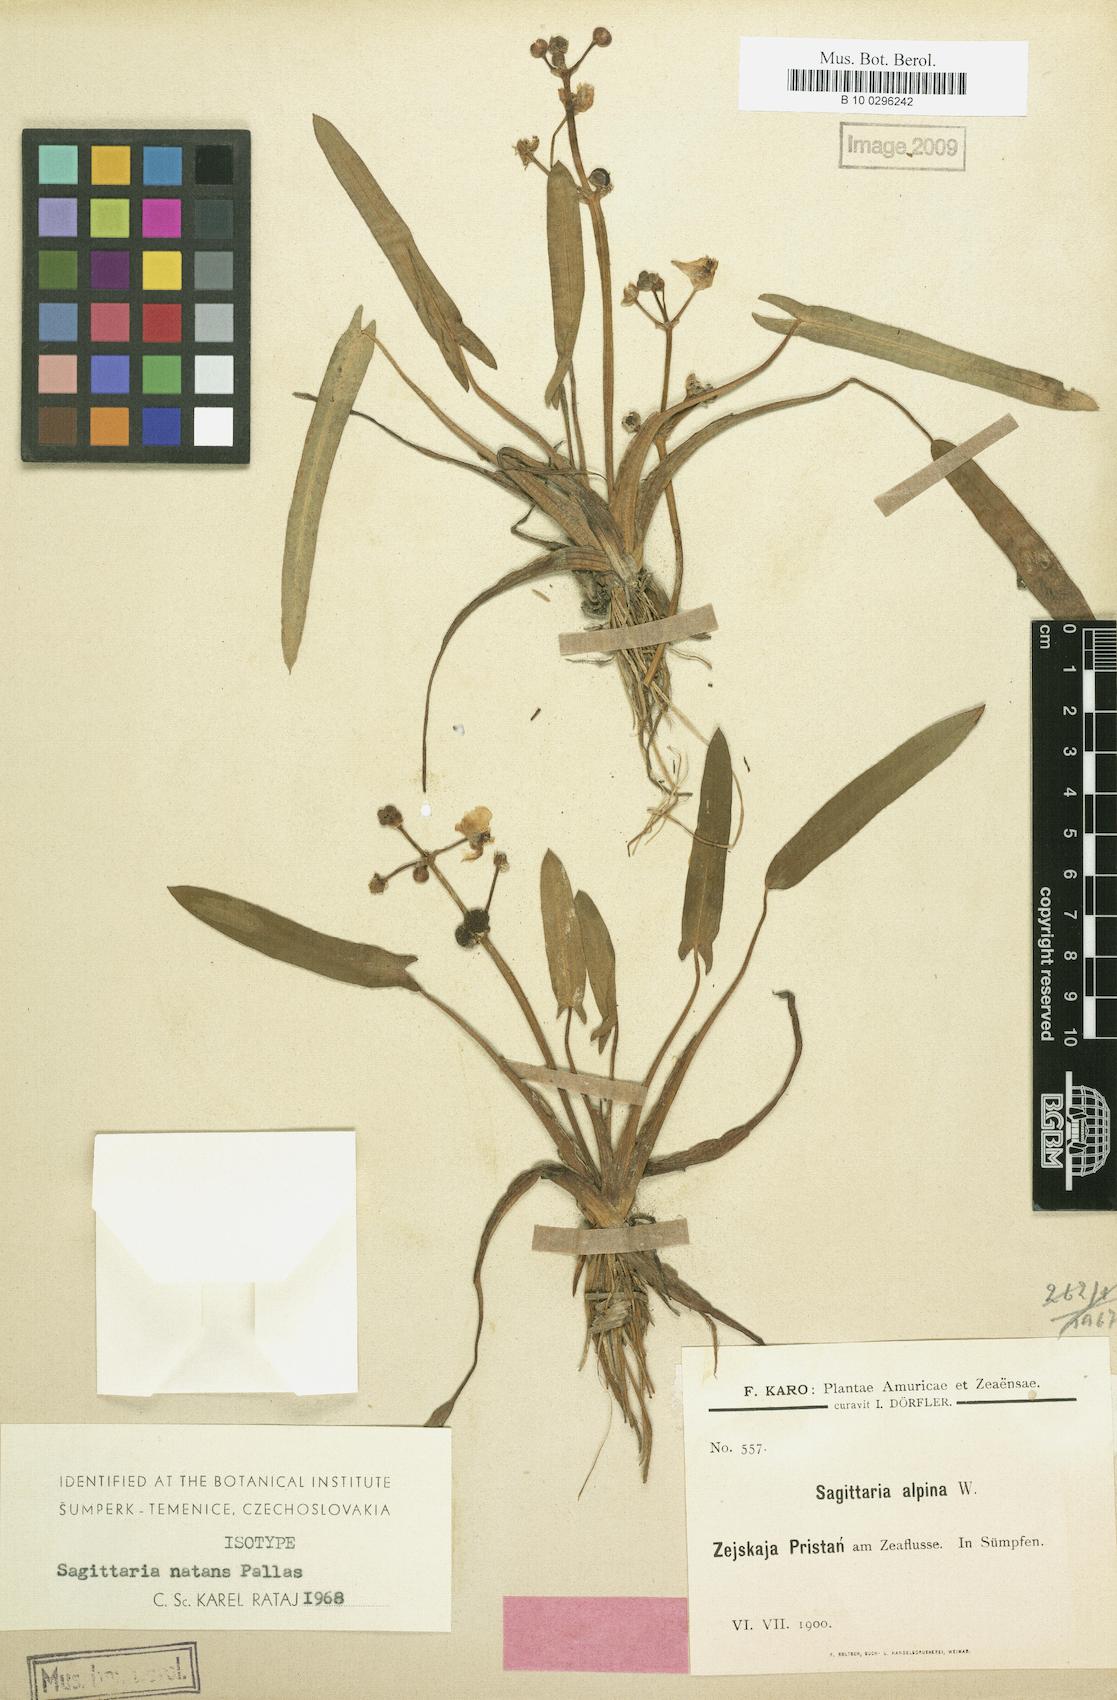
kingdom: Plantae
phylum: Tracheophyta
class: Liliopsida
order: Alismatales
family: Alismataceae
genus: Sagittaria
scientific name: Sagittaria natans
